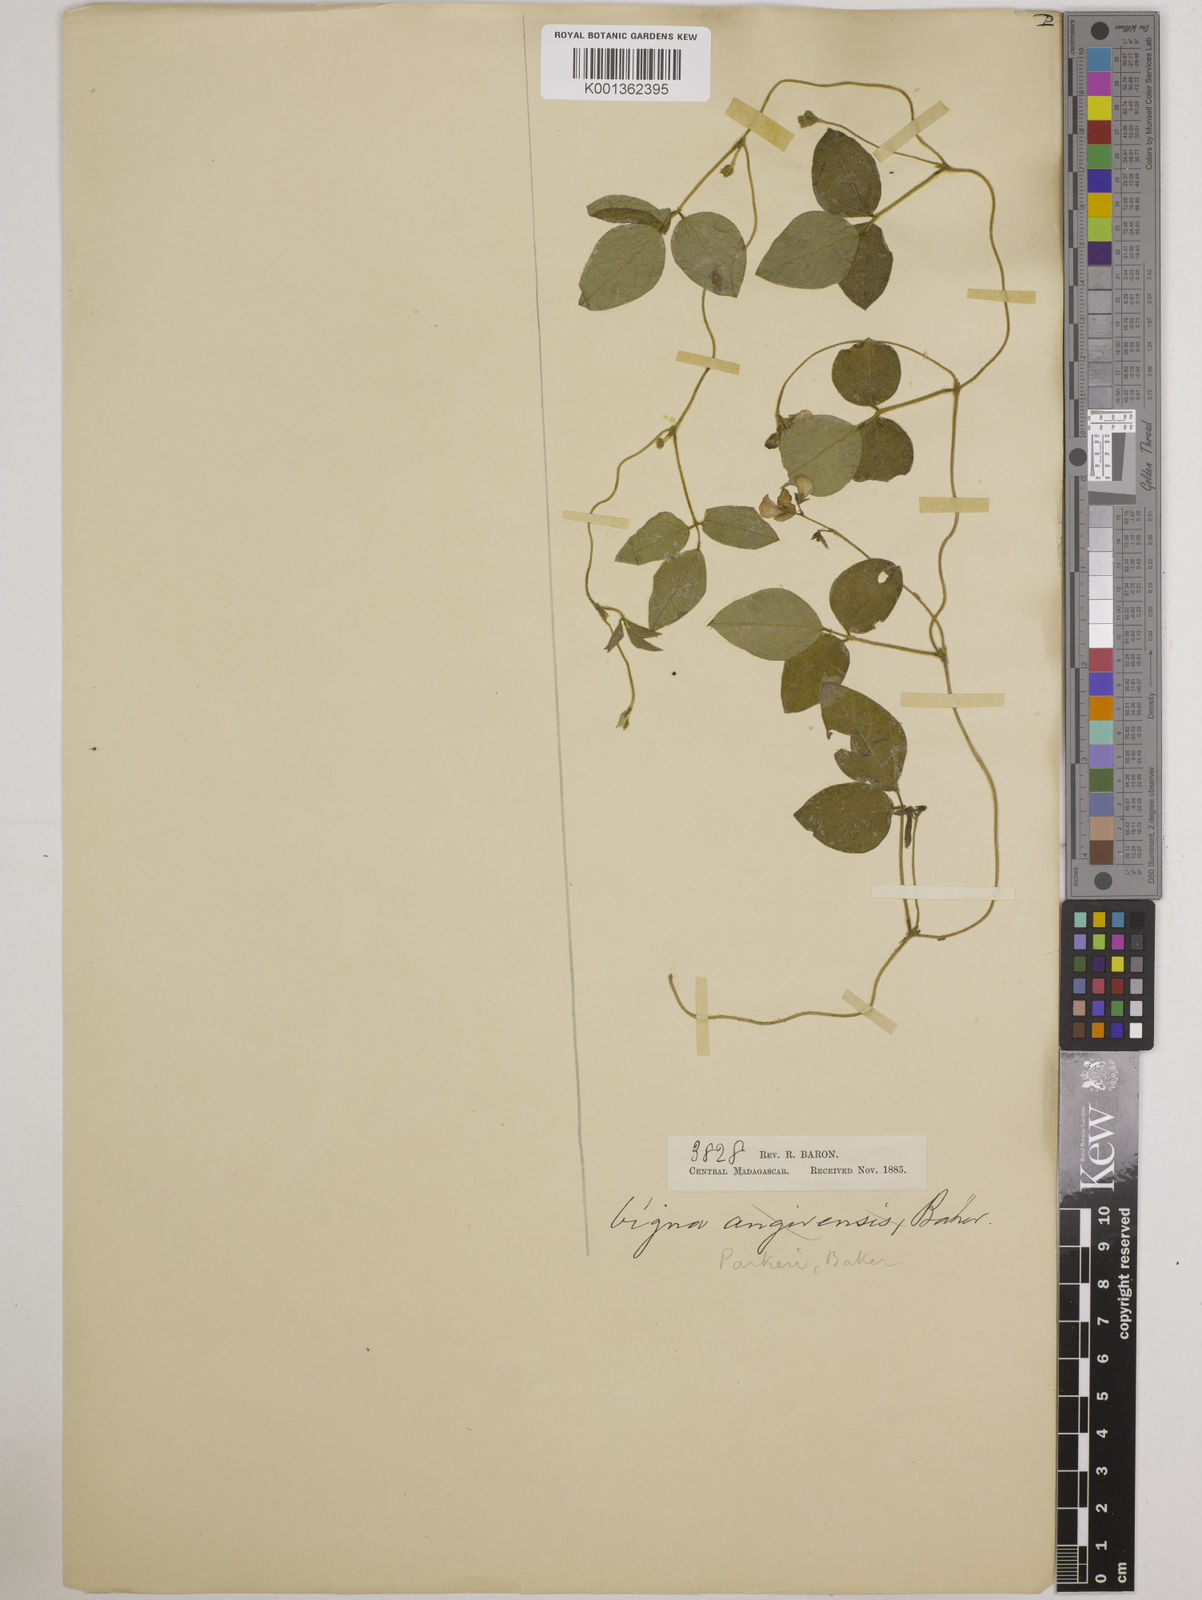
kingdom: Plantae
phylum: Tracheophyta
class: Magnoliopsida
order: Fabales
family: Fabaceae
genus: Vigna
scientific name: Vigna
